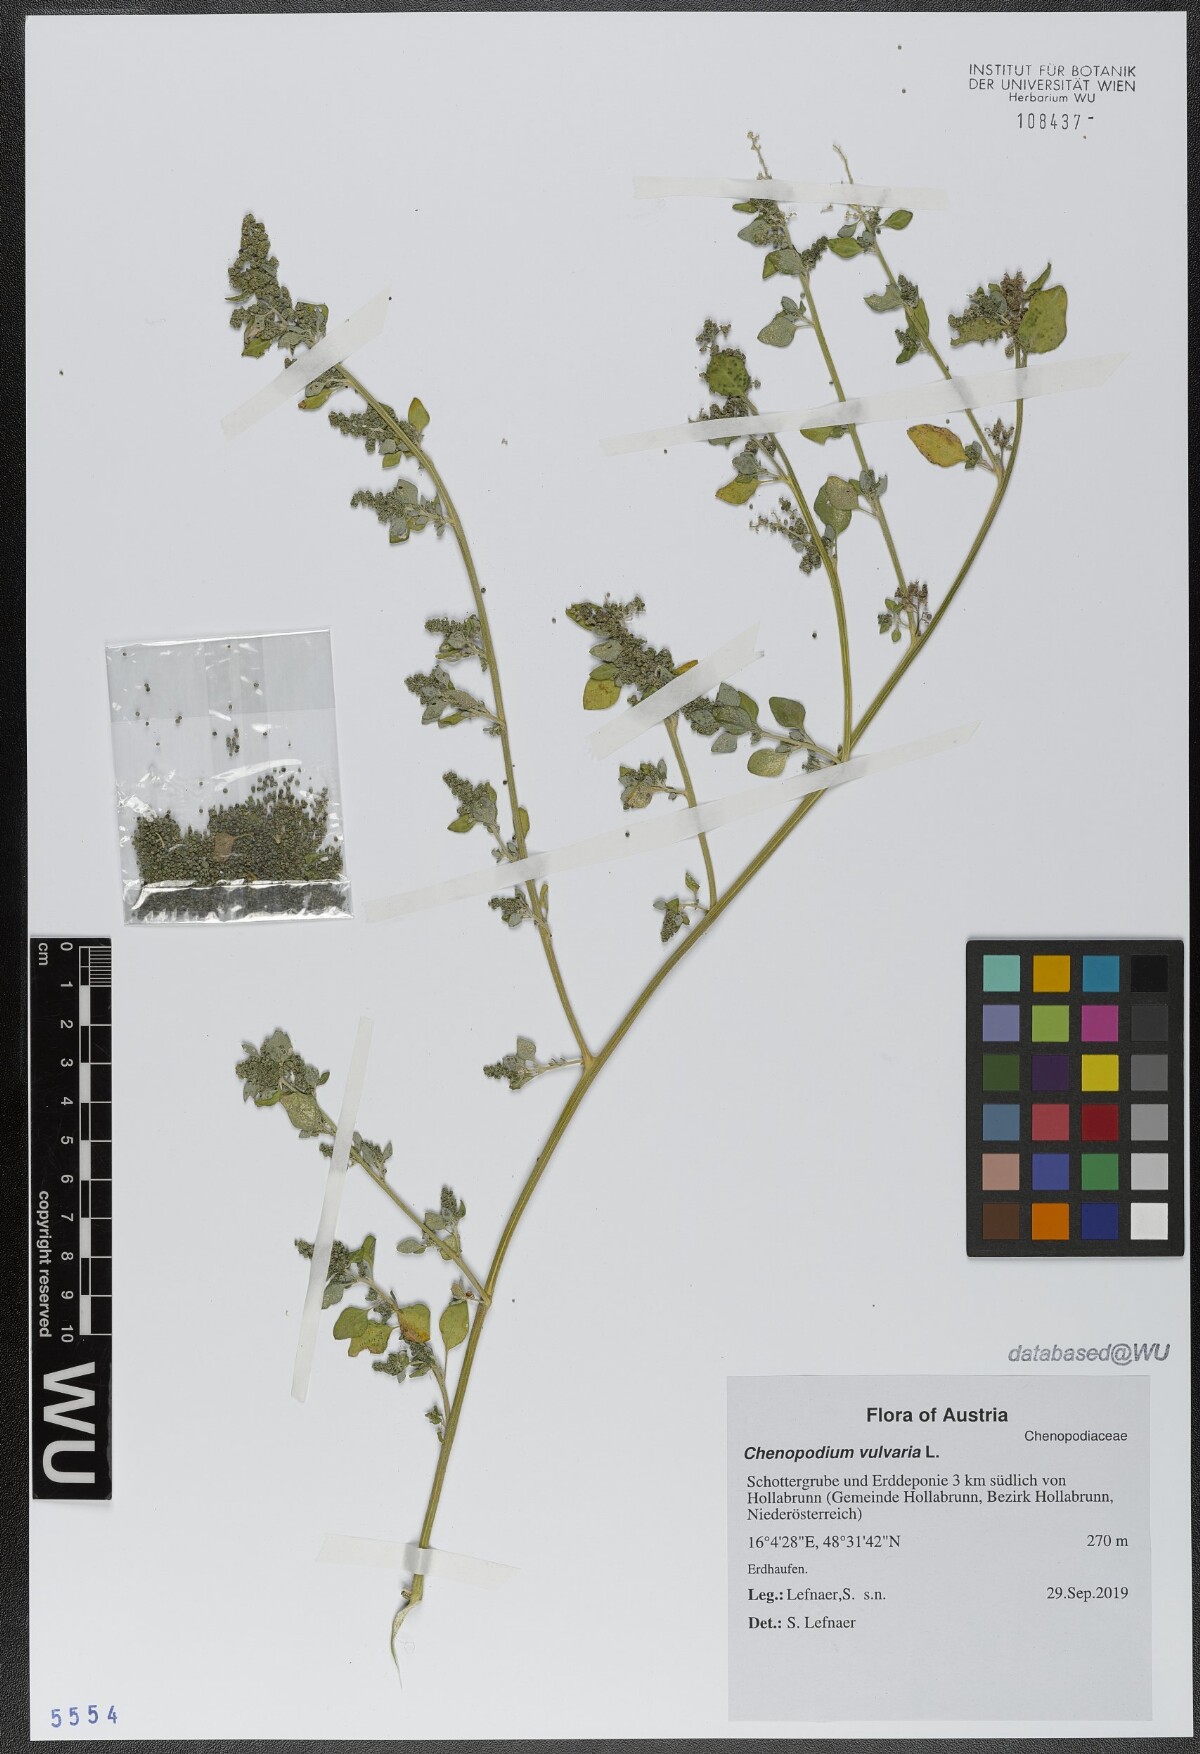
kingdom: Plantae
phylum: Tracheophyta
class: Magnoliopsida
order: Caryophyllales
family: Amaranthaceae
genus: Chenopodium
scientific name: Chenopodium vulvaria
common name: Stinking goosefoot
